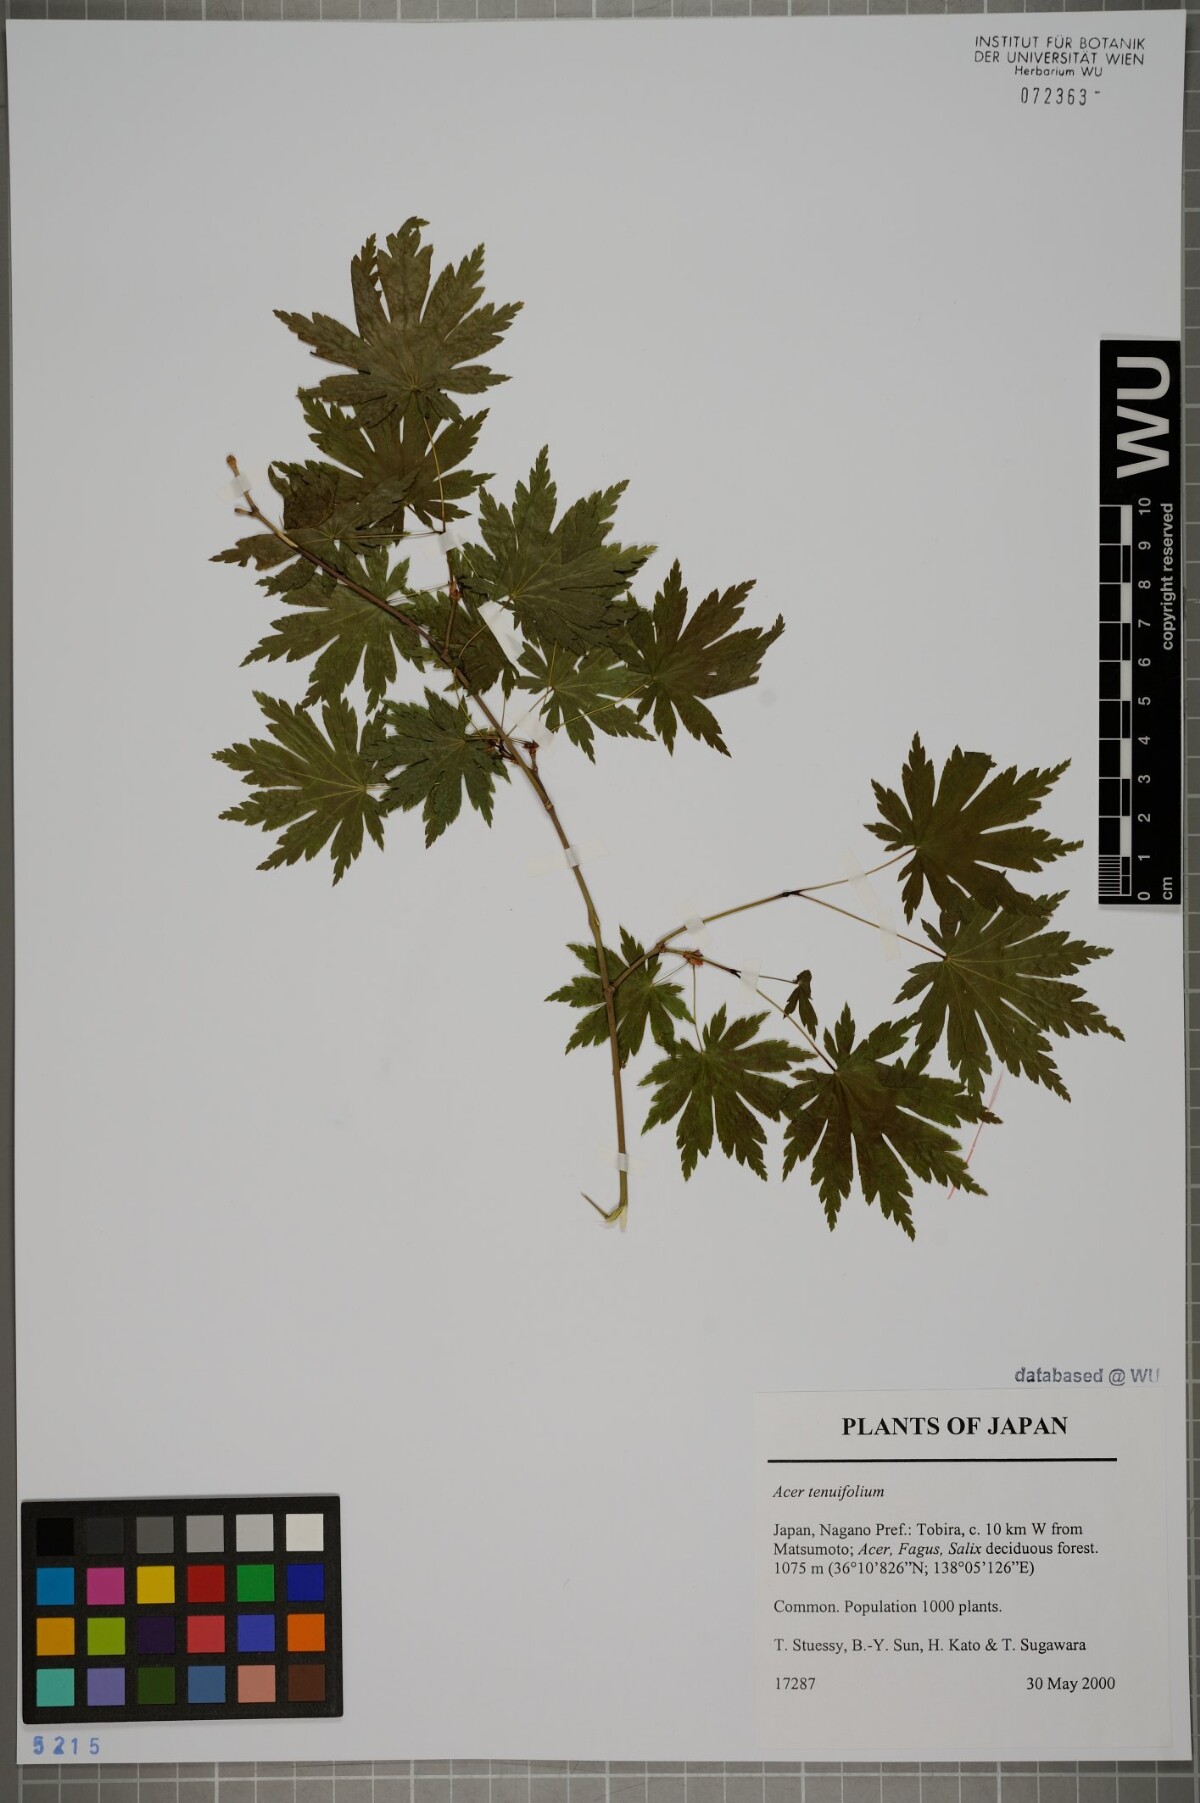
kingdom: Plantae
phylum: Tracheophyta
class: Magnoliopsida
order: Sapindales
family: Sapindaceae
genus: Acer
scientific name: Acer shirasawanum
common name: Full moon maple
